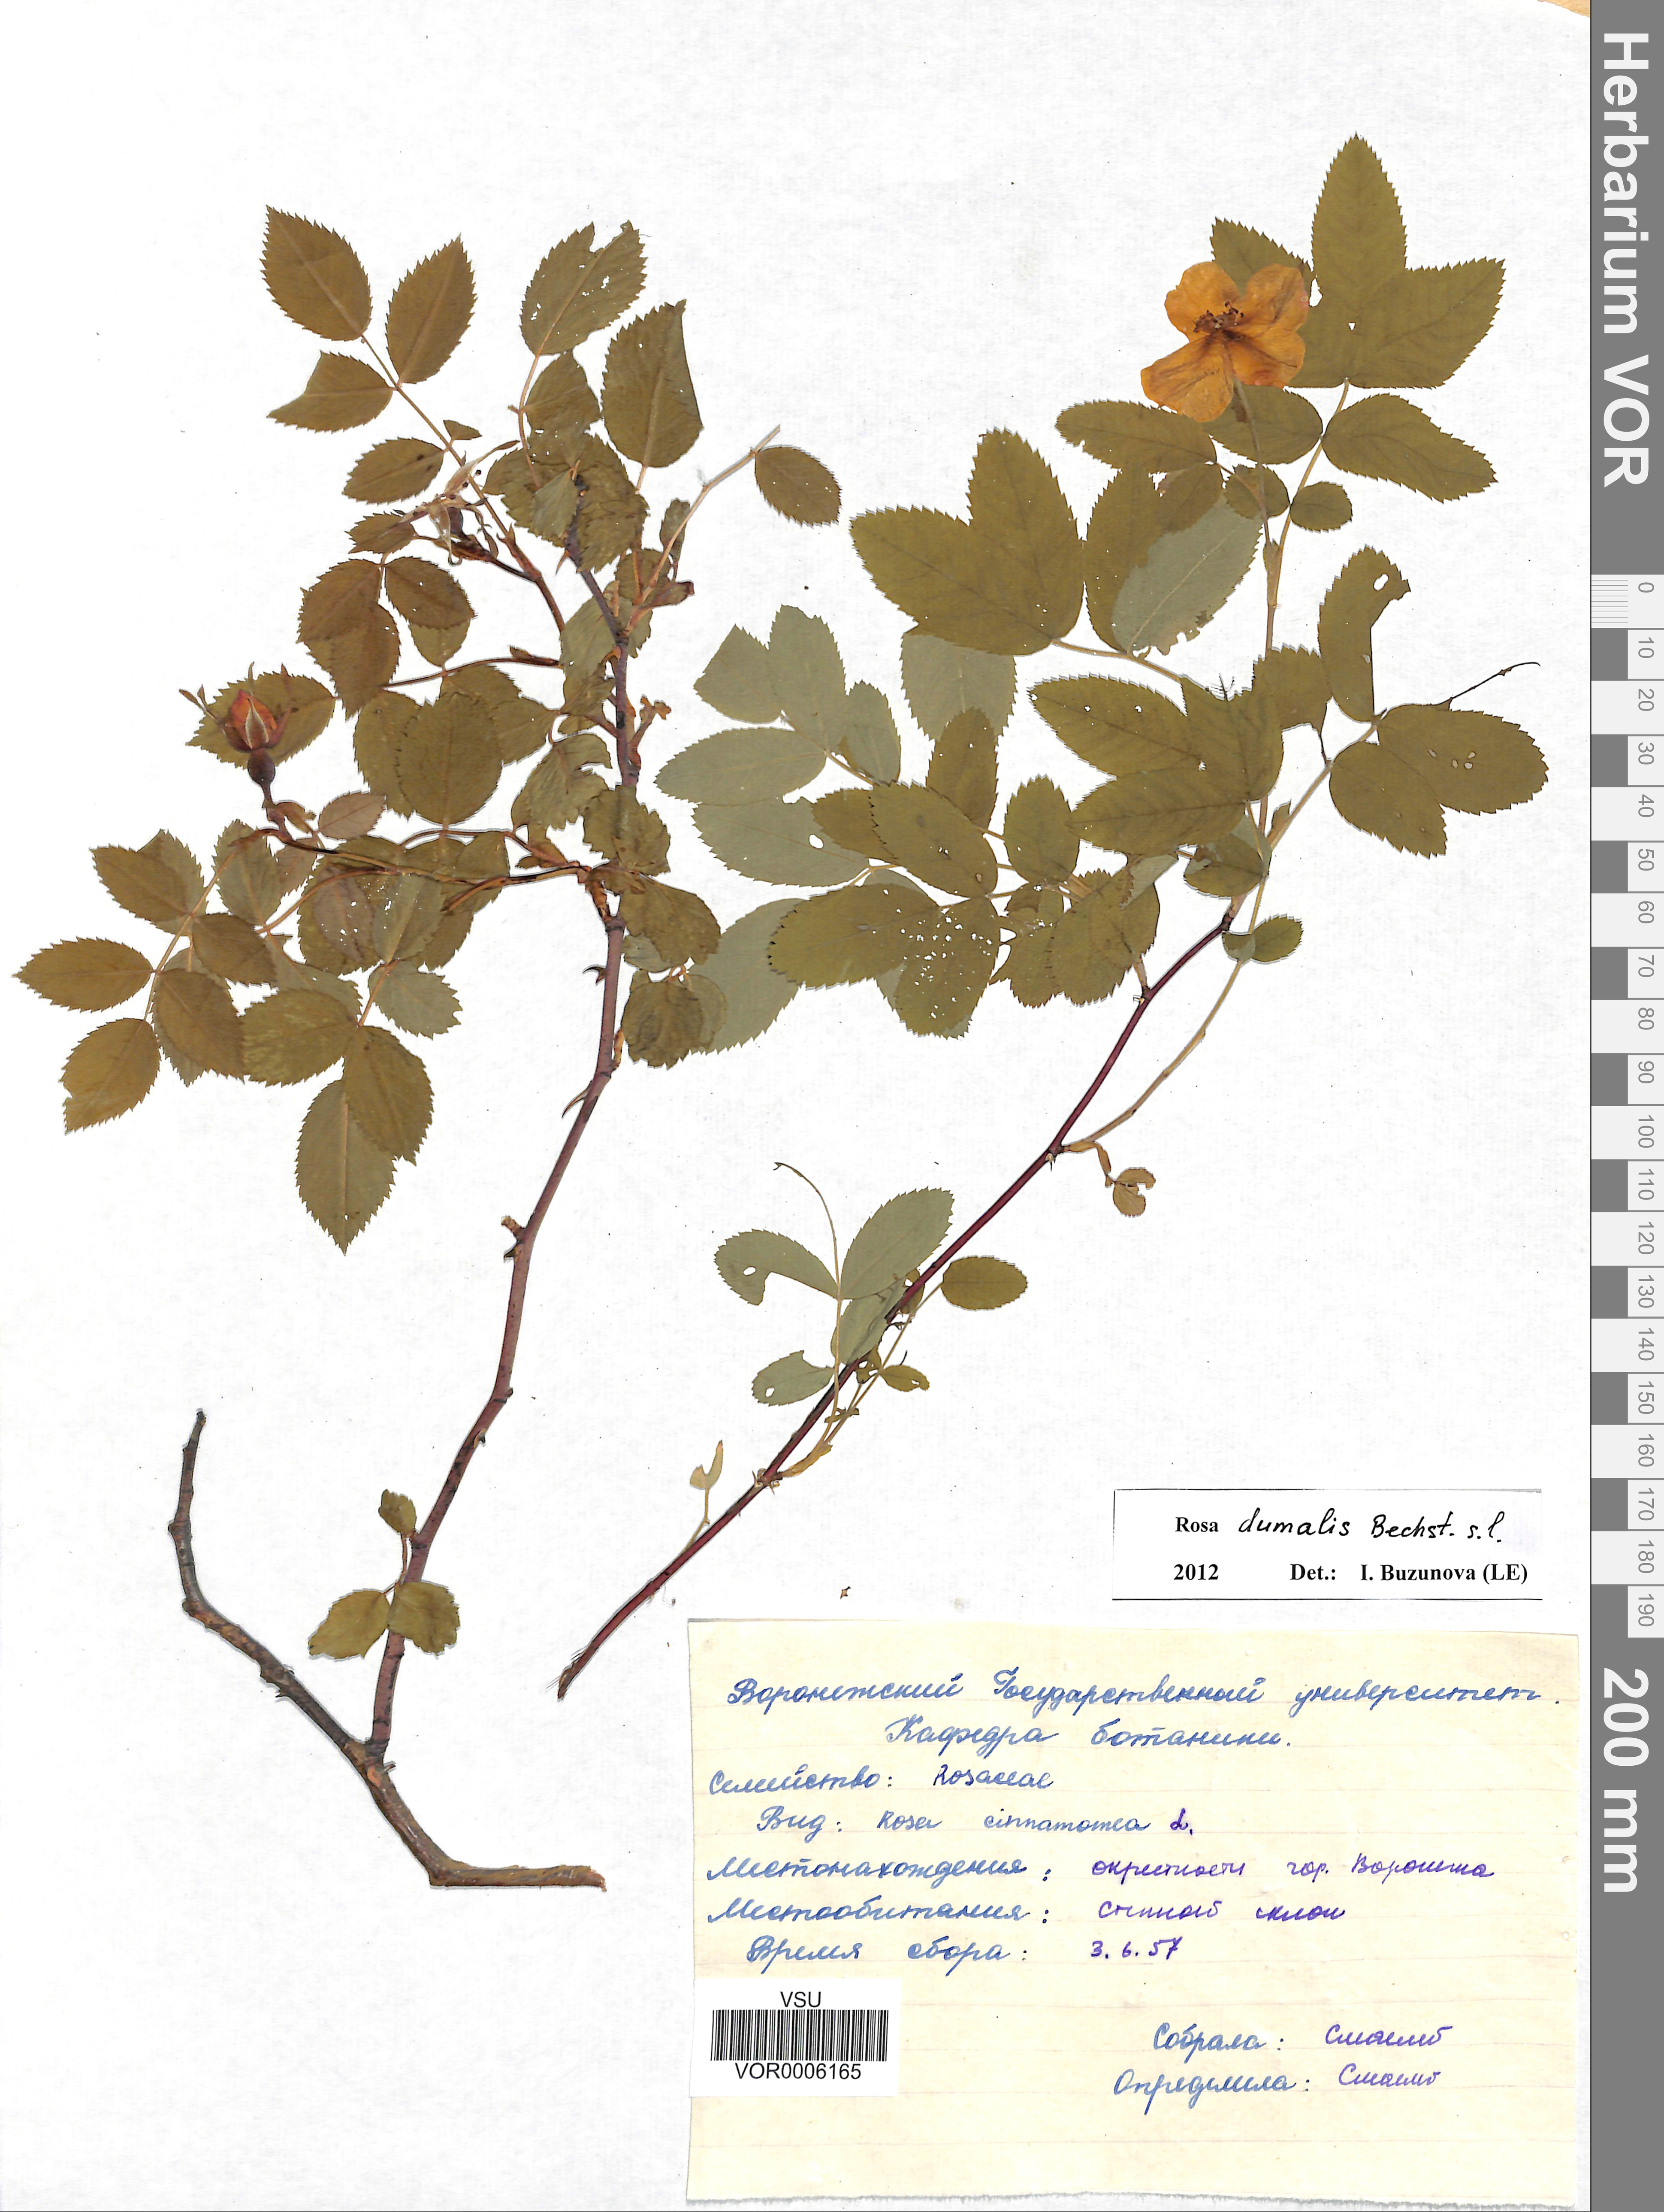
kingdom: Plantae
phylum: Tracheophyta
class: Magnoliopsida
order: Rosales
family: Rosaceae
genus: Rosa
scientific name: Rosa dumalis
